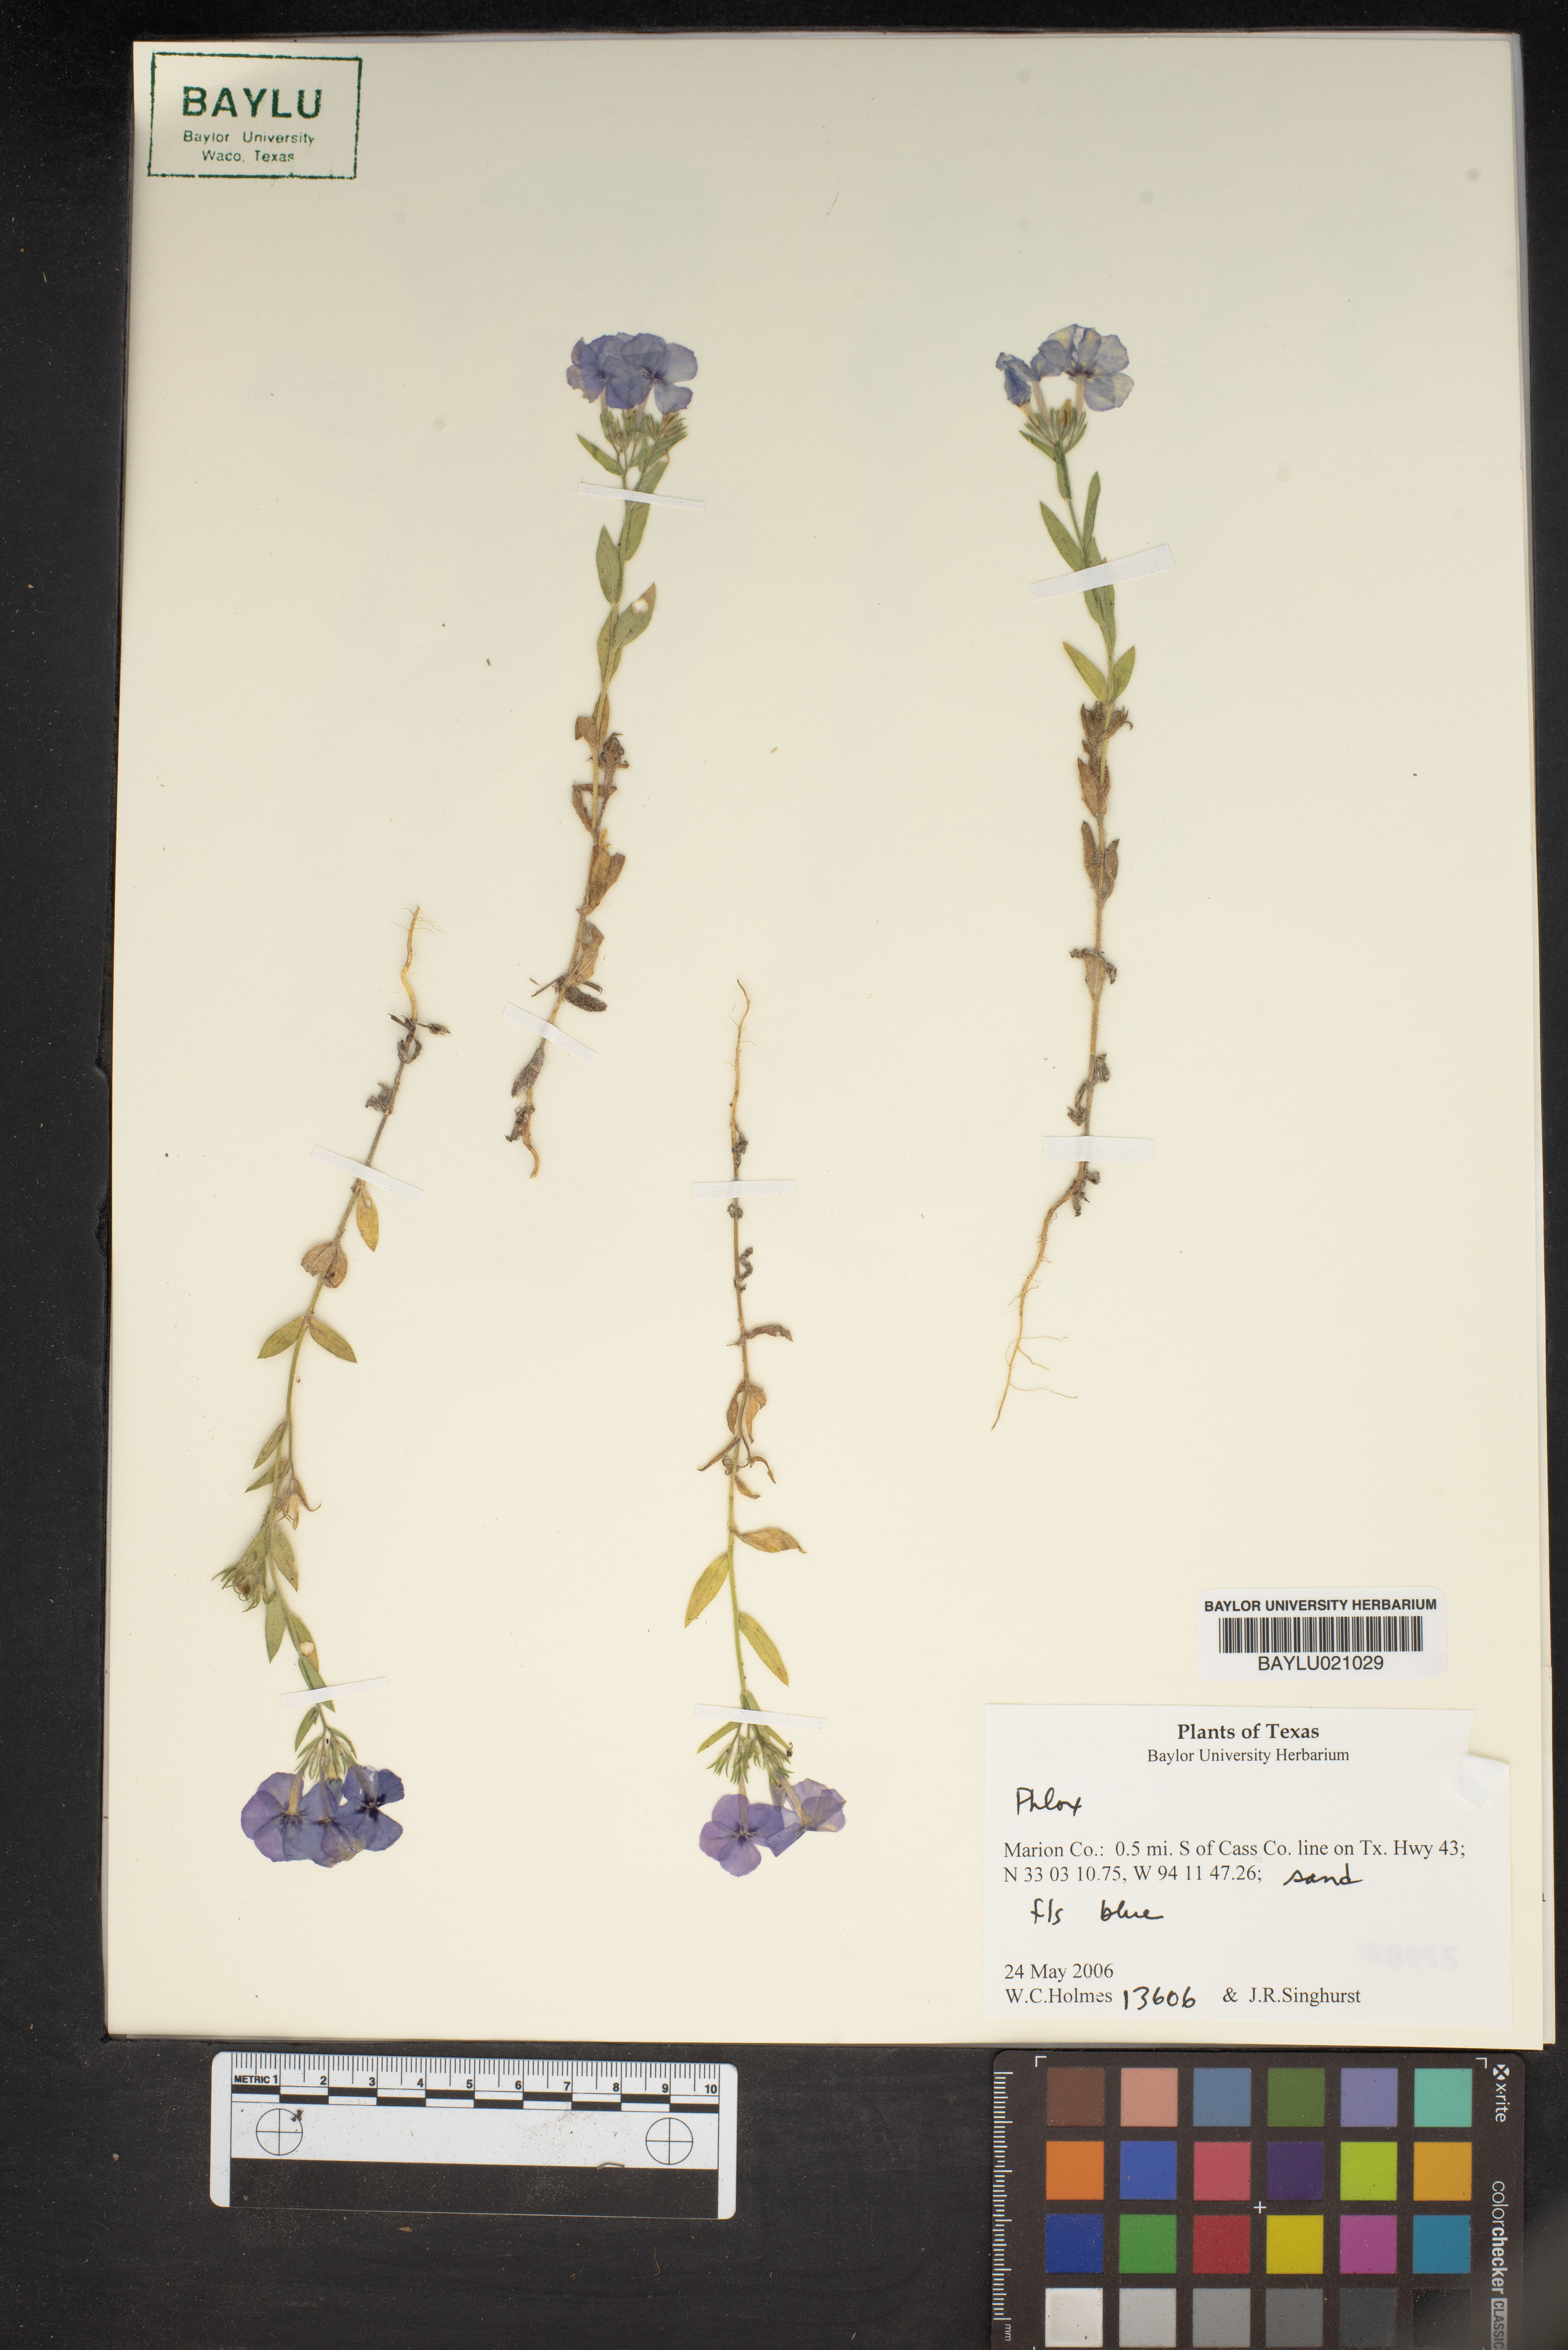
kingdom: Plantae
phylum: Tracheophyta
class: Magnoliopsida
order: Ericales
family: Polemoniaceae
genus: Phlox
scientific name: Phlox
